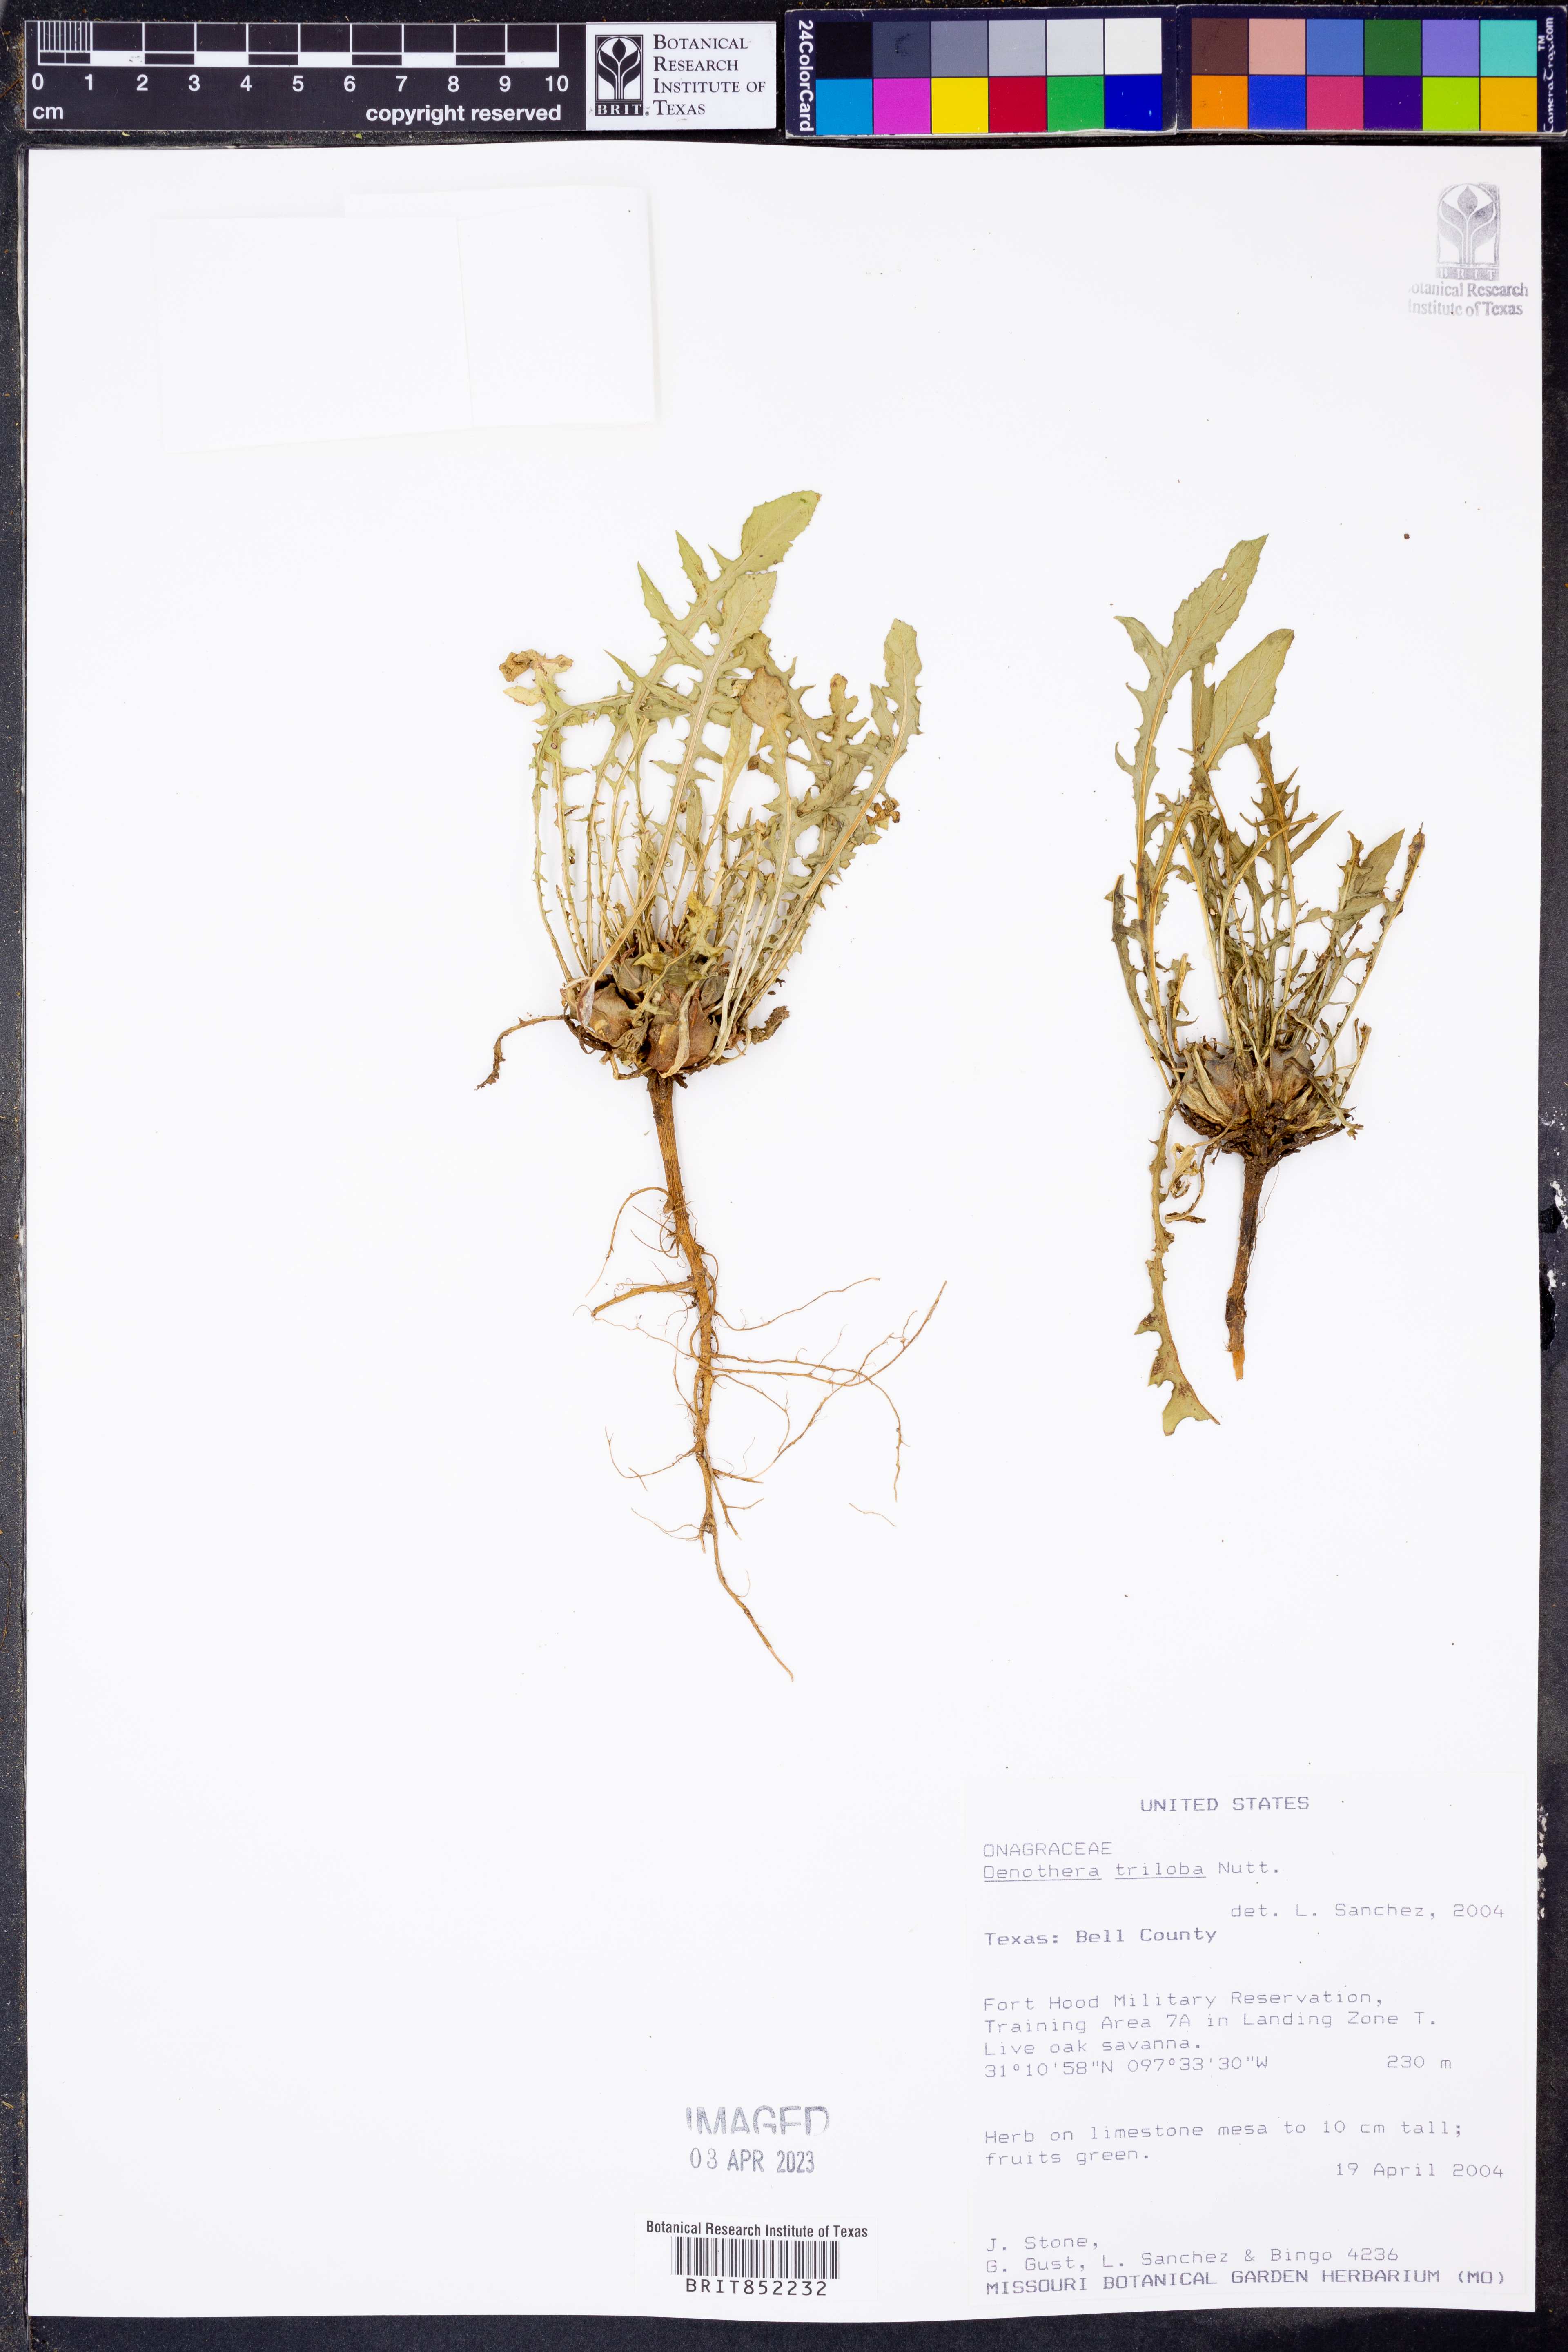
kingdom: Plantae
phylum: Tracheophyta
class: Magnoliopsida
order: Myrtales
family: Onagraceae
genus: Oenothera
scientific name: Oenothera triloba
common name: Sessile evening-primrose
